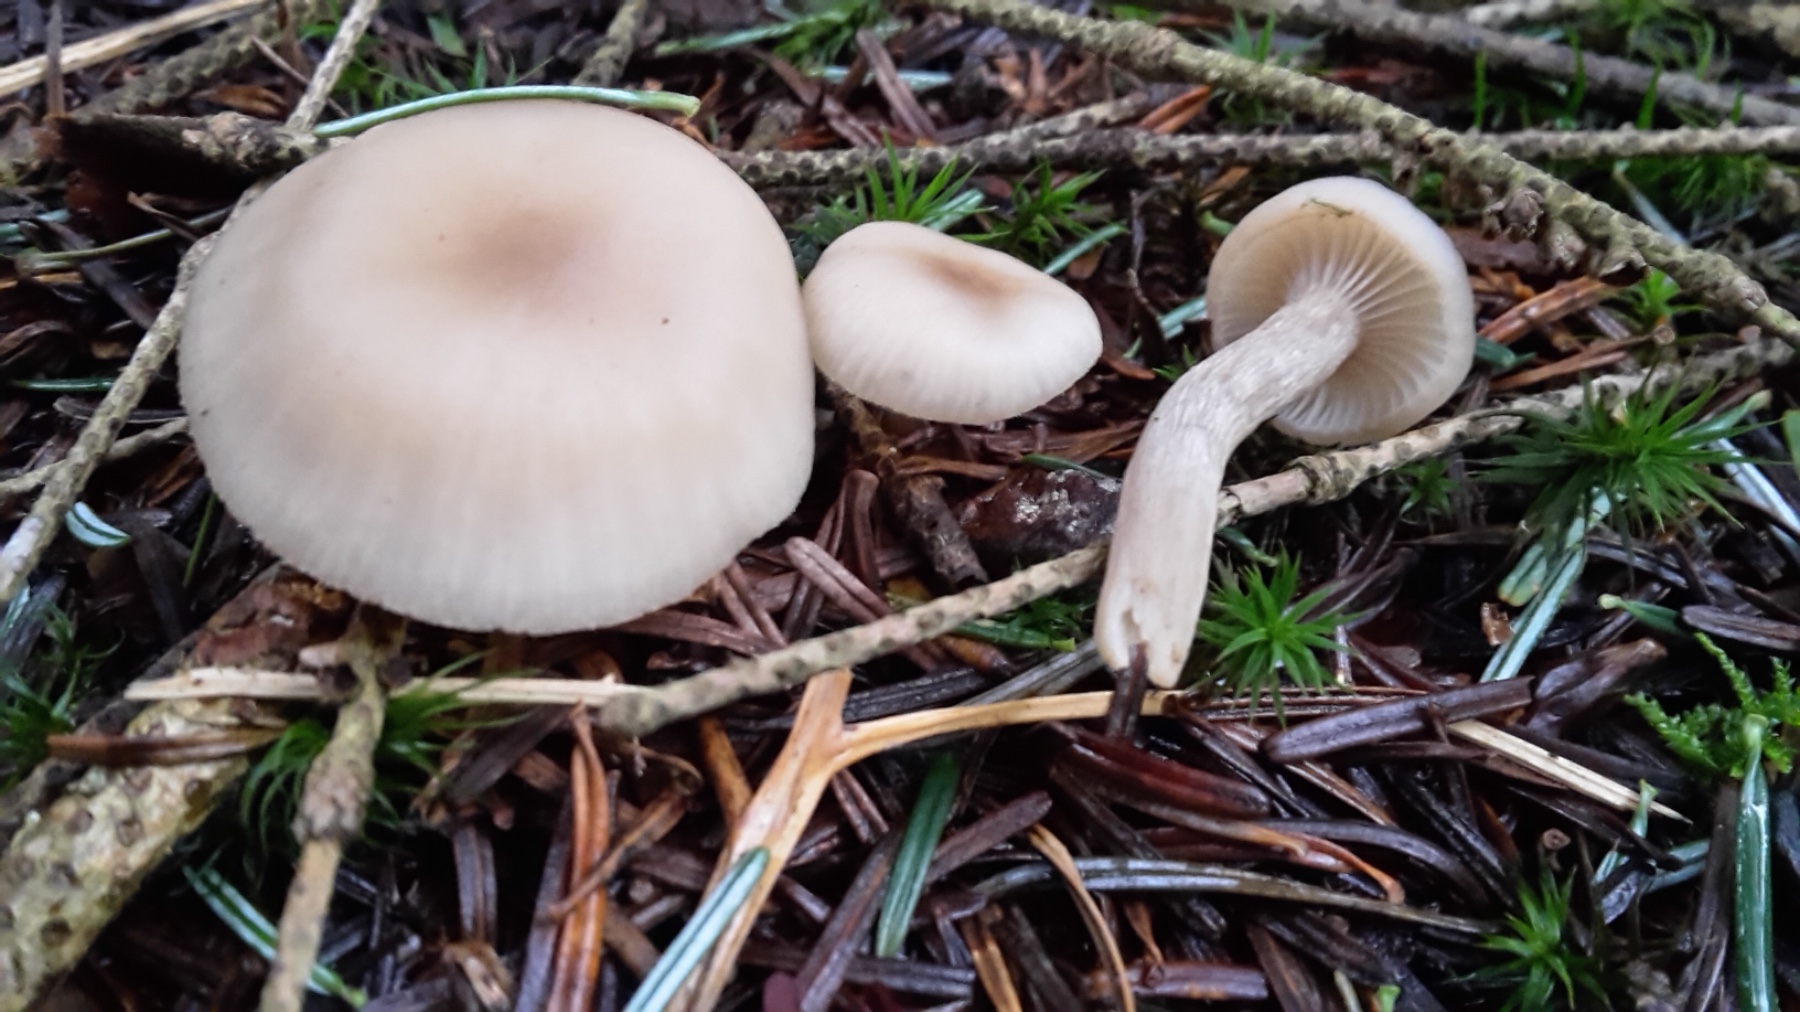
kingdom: Fungi
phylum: Basidiomycota
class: Agaricomycetes
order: Agaricales
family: Tricholomataceae
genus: Clitocybe
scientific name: Clitocybe fragrans
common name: vellugtende tragthat
